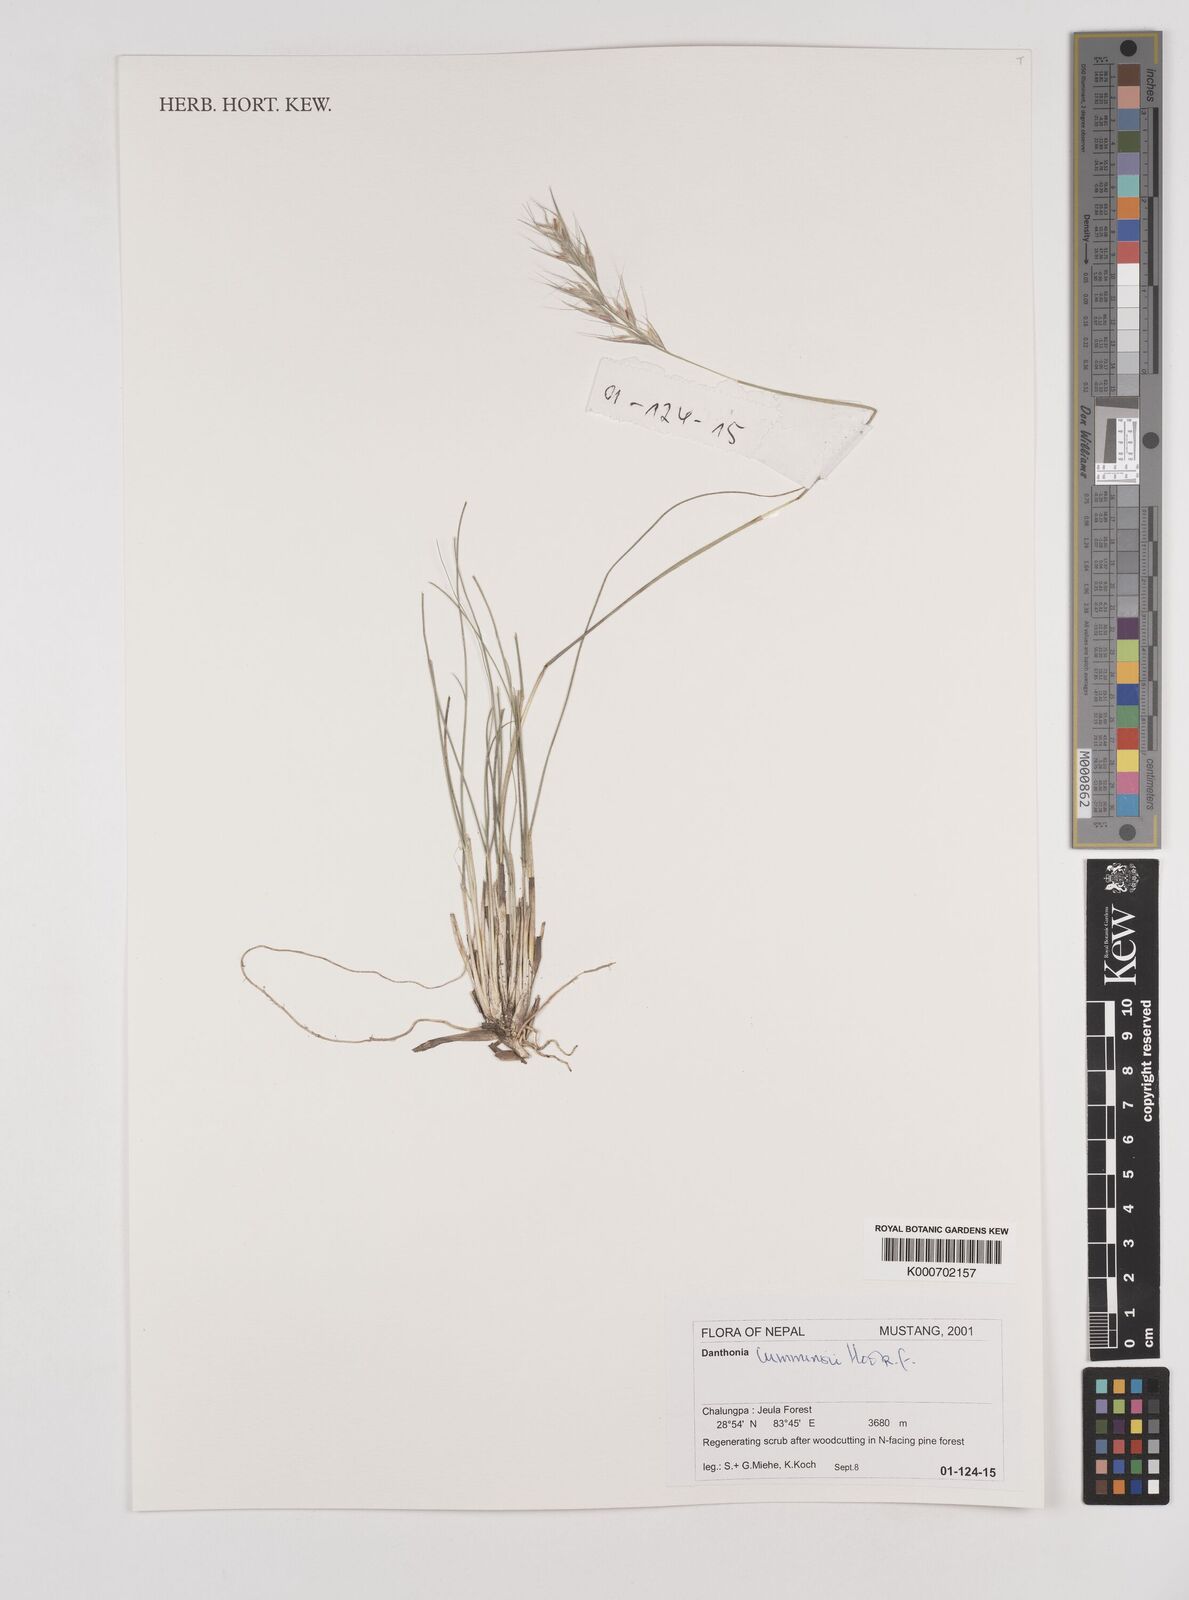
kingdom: Plantae
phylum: Tracheophyta
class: Liliopsida
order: Poales
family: Poaceae
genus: Tenaxia
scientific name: Tenaxia cumminsii
